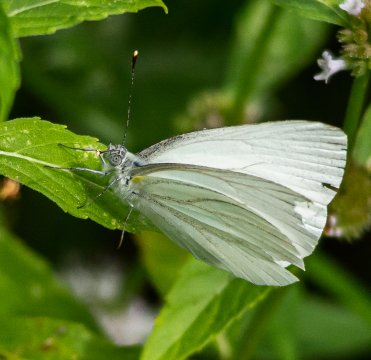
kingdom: Animalia
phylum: Arthropoda
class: Insecta
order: Lepidoptera
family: Pieridae
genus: Pieris
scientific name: Pieris oleracea
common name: Mustard White
